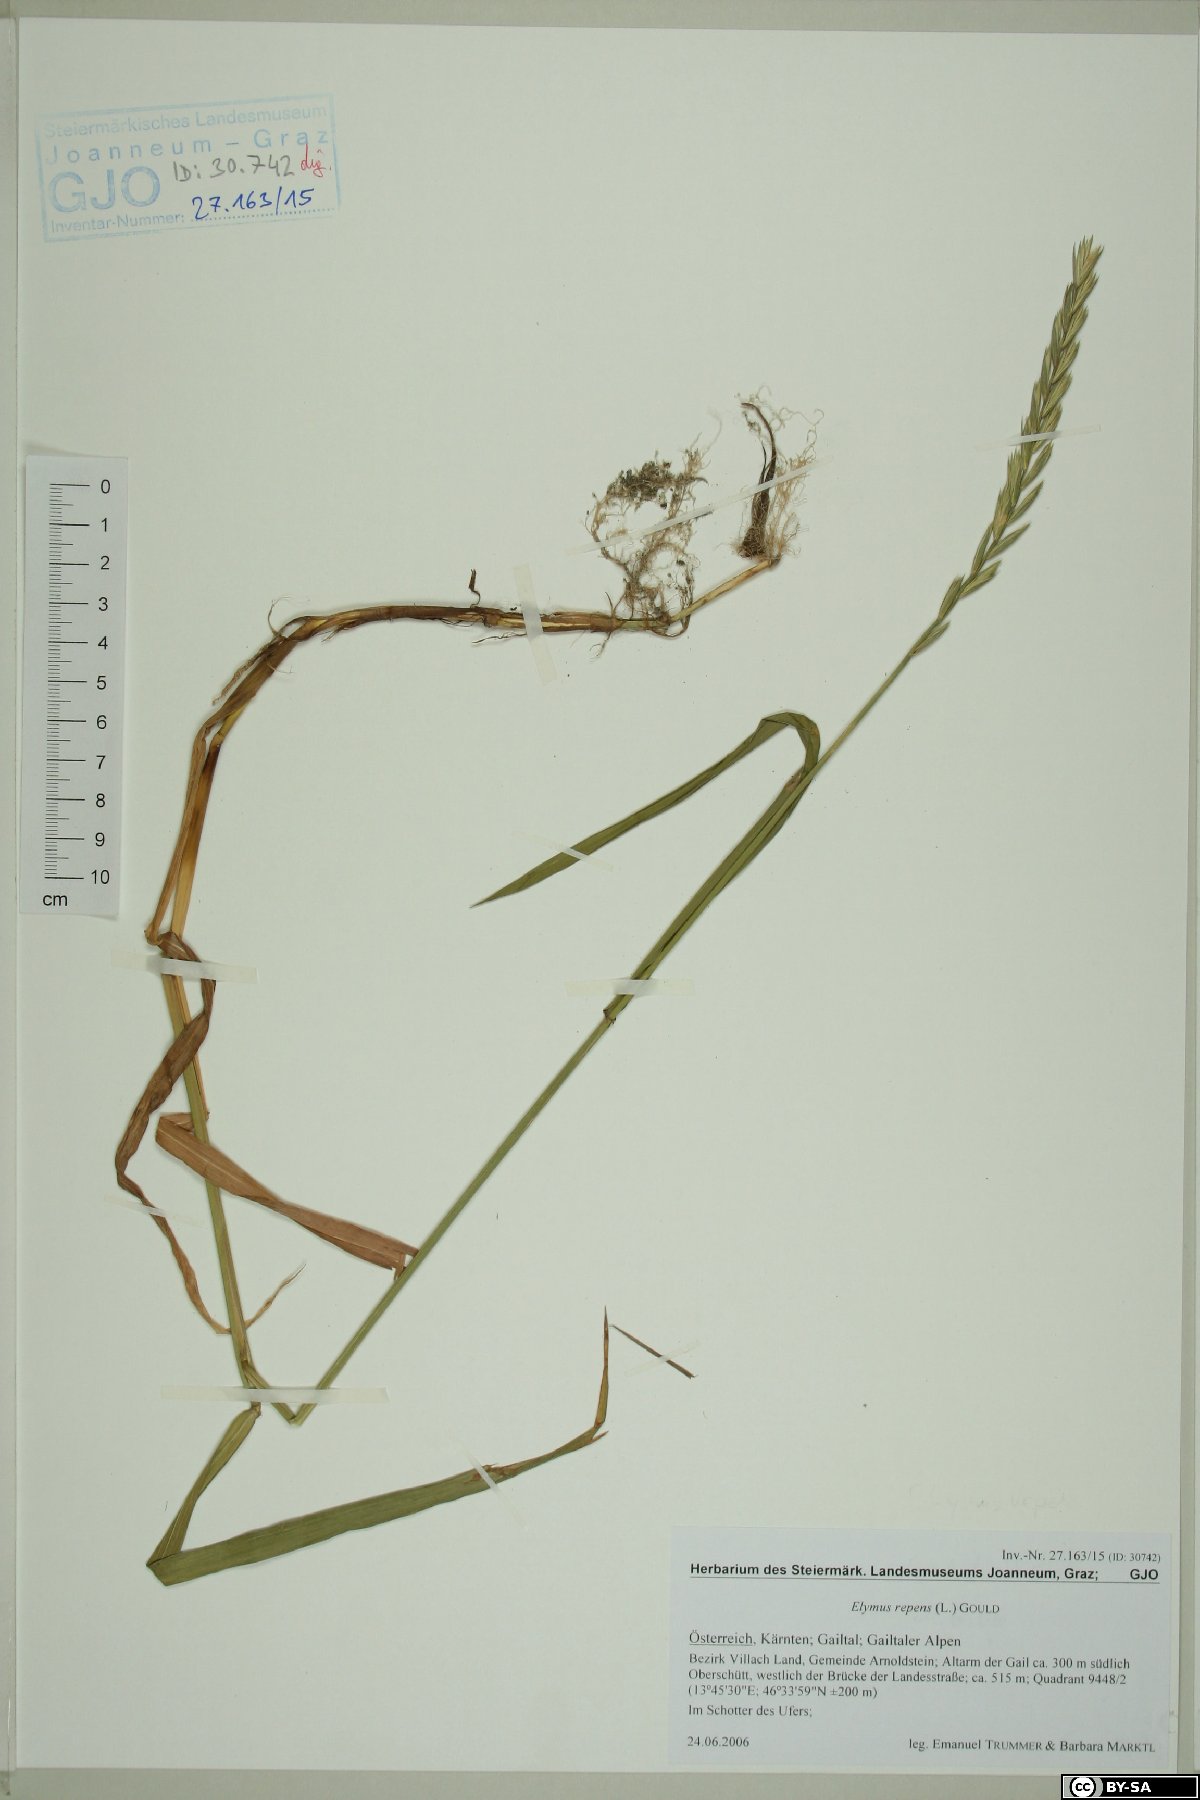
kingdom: Plantae
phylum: Tracheophyta
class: Liliopsida
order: Poales
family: Poaceae
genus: Elymus
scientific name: Elymus repens
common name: Quackgrass
